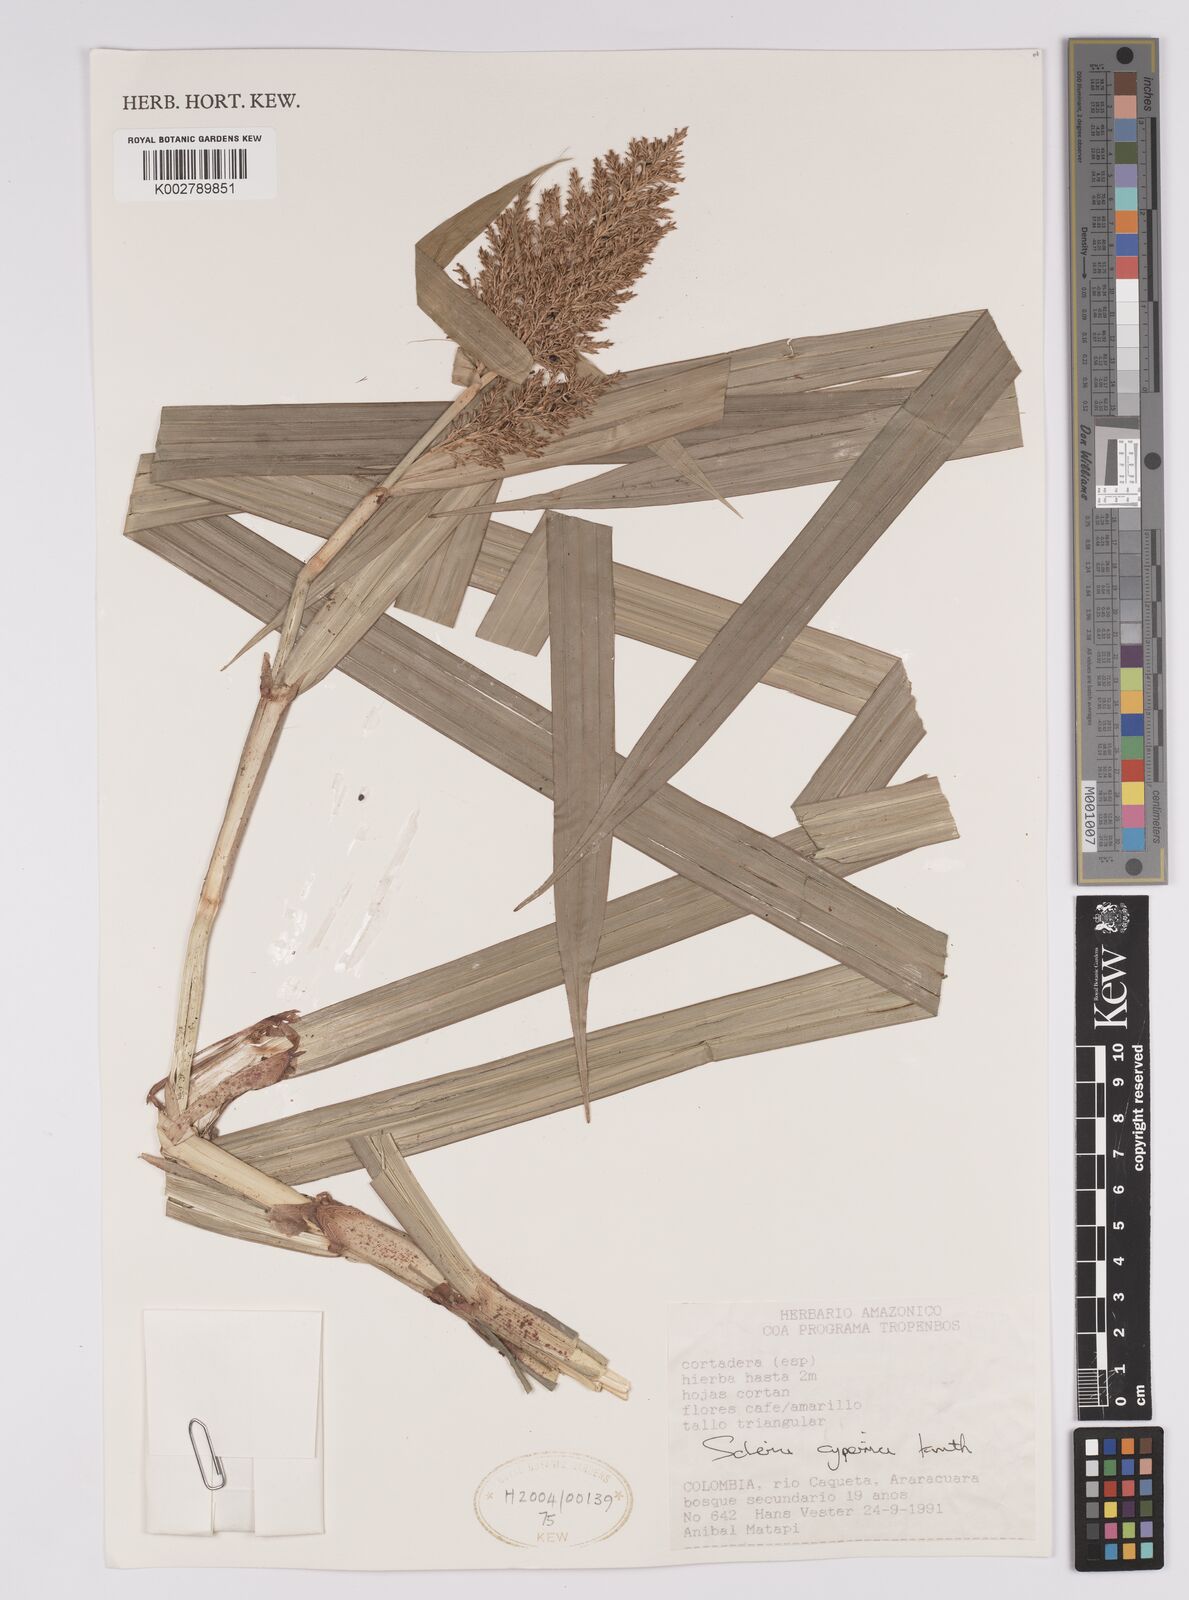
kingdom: Plantae
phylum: Tracheophyta
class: Liliopsida
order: Poales
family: Cyperaceae
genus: Scleria
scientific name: Scleria cyperina
